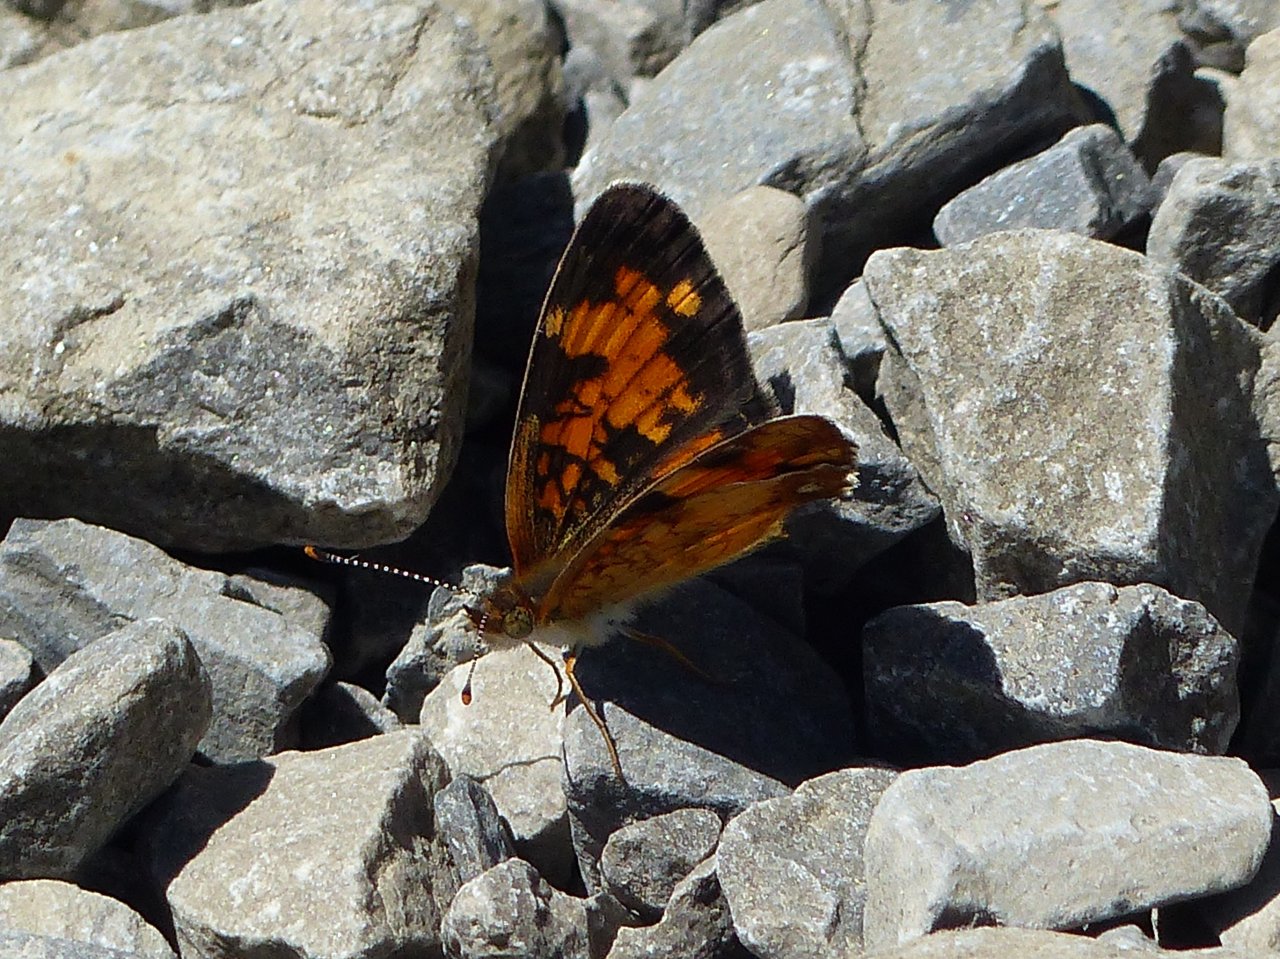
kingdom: Animalia
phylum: Arthropoda
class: Insecta
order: Lepidoptera
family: Nymphalidae
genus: Phyciodes
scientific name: Phyciodes tharos
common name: Northern Crescent
